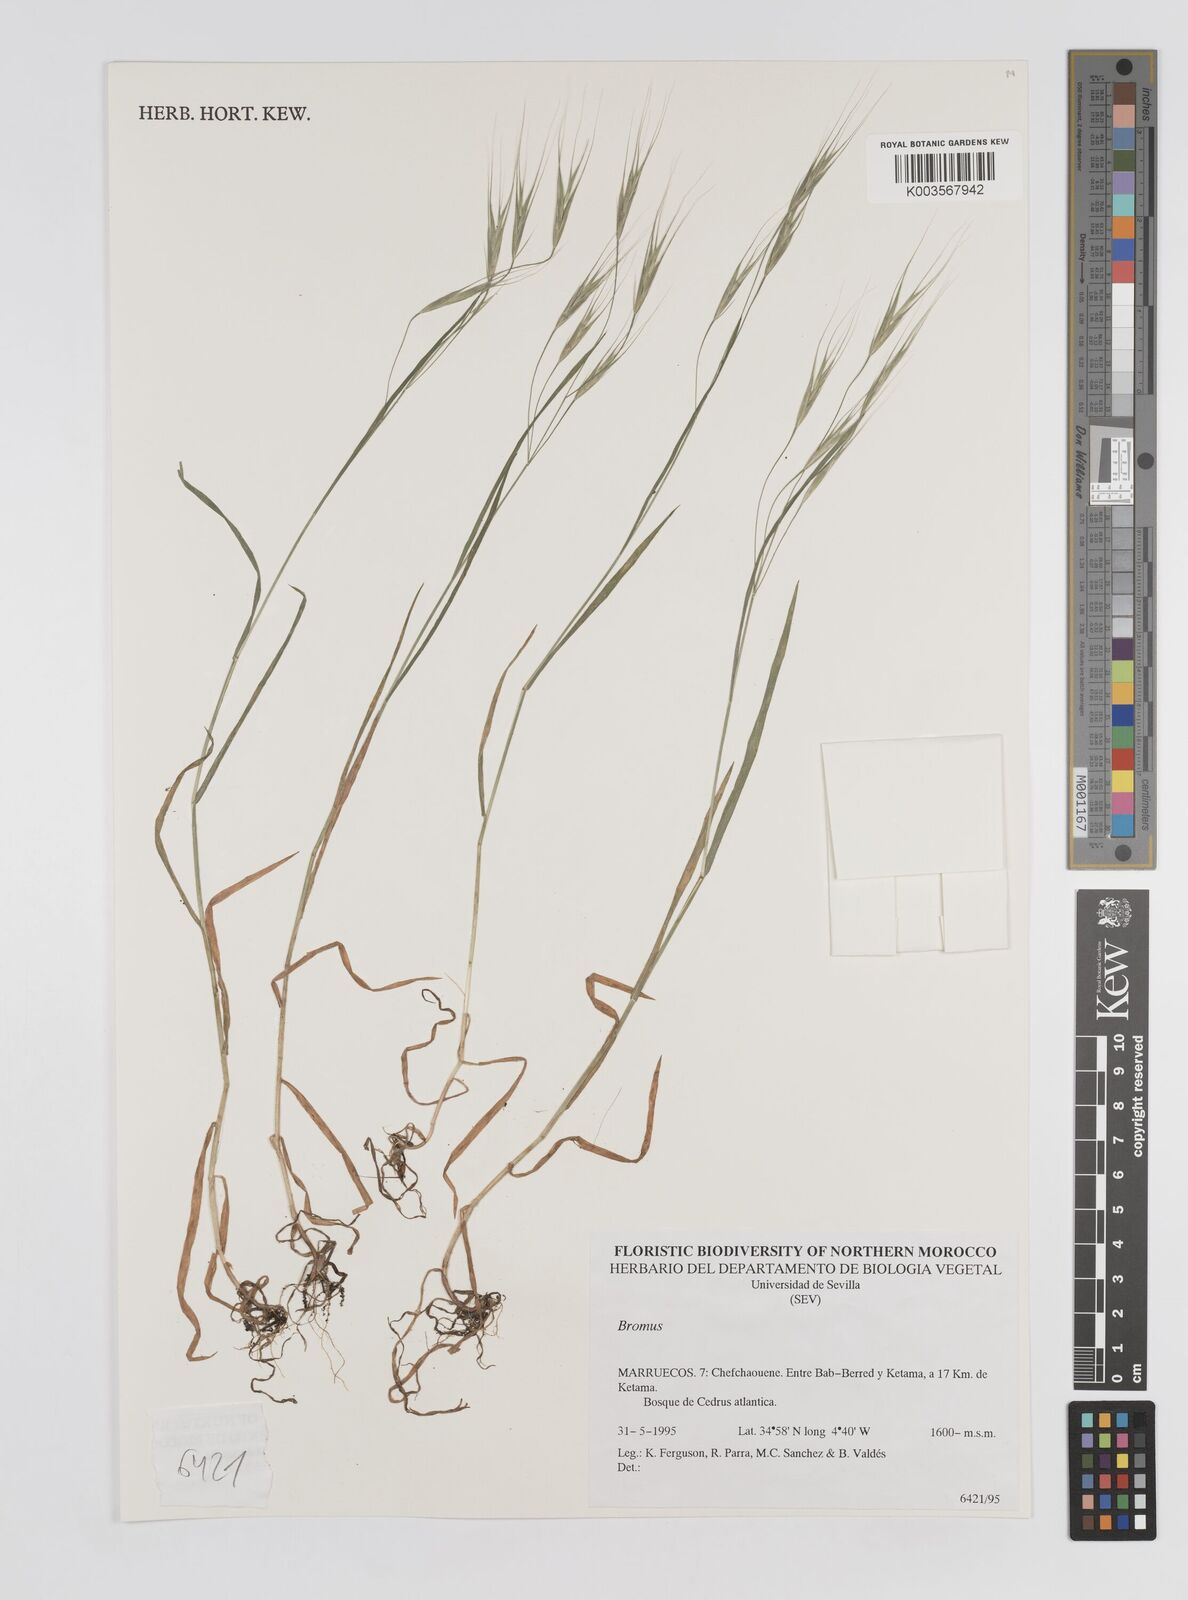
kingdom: Plantae
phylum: Tracheophyta
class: Liliopsida
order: Poales
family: Poaceae
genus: Bromus
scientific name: Bromus
